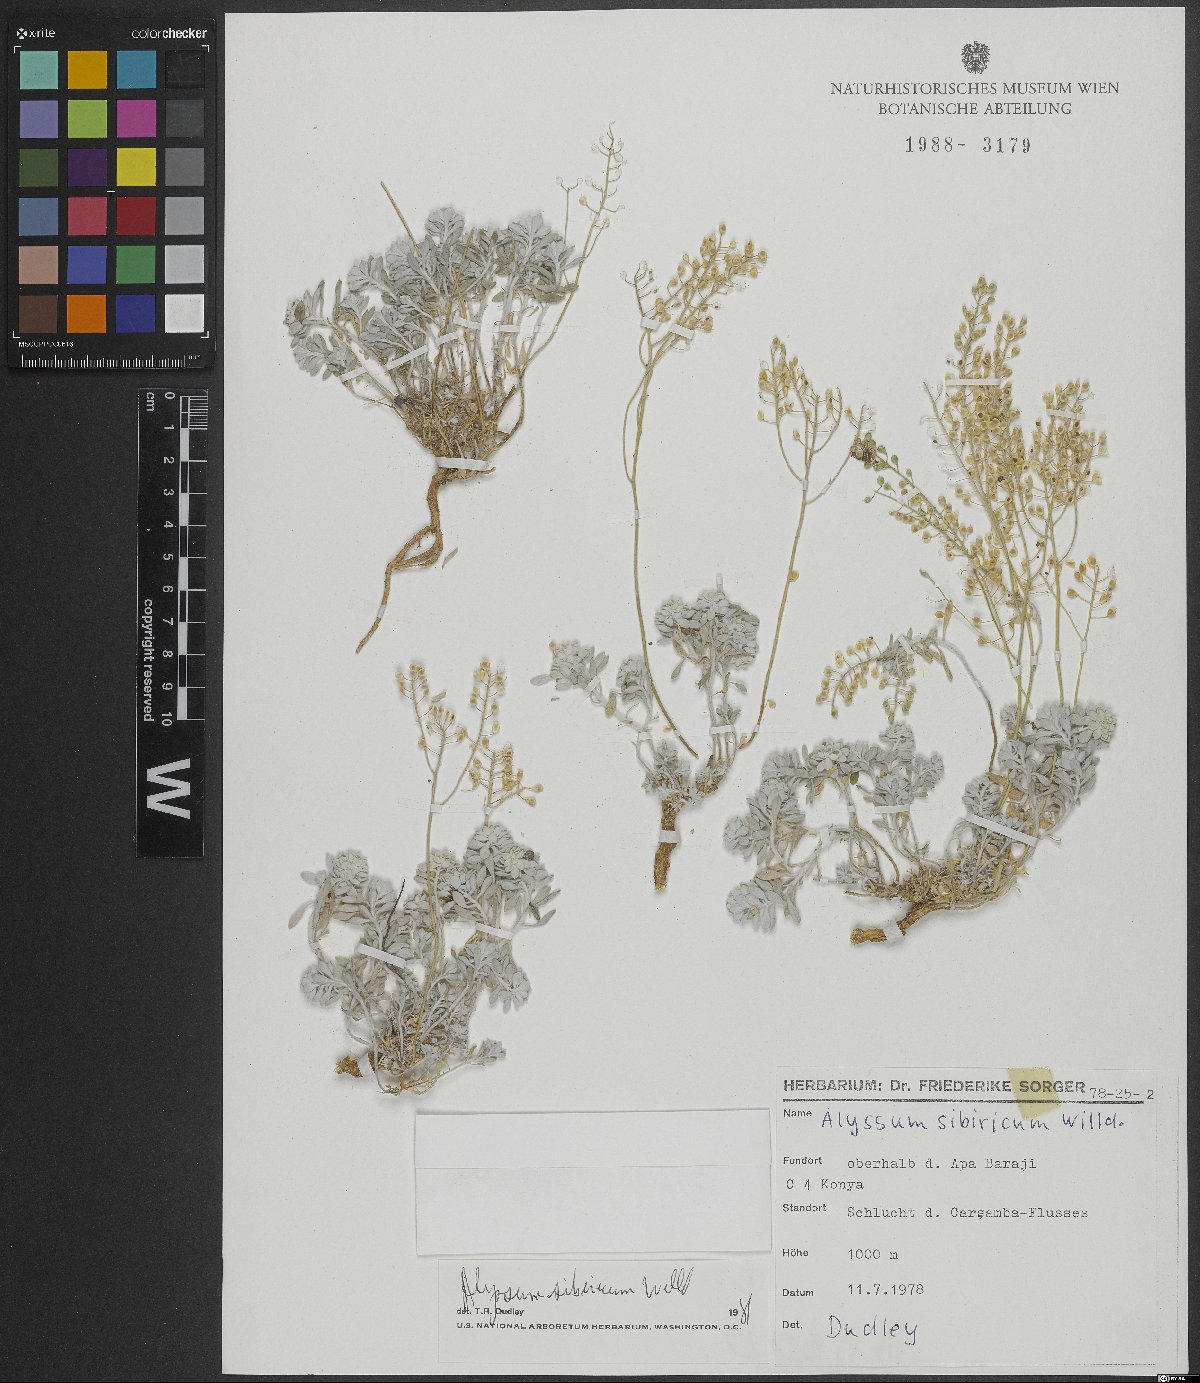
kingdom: Plantae
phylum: Tracheophyta
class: Magnoliopsida
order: Brassicales
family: Brassicaceae
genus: Odontarrhena
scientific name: Odontarrhena sibirica
